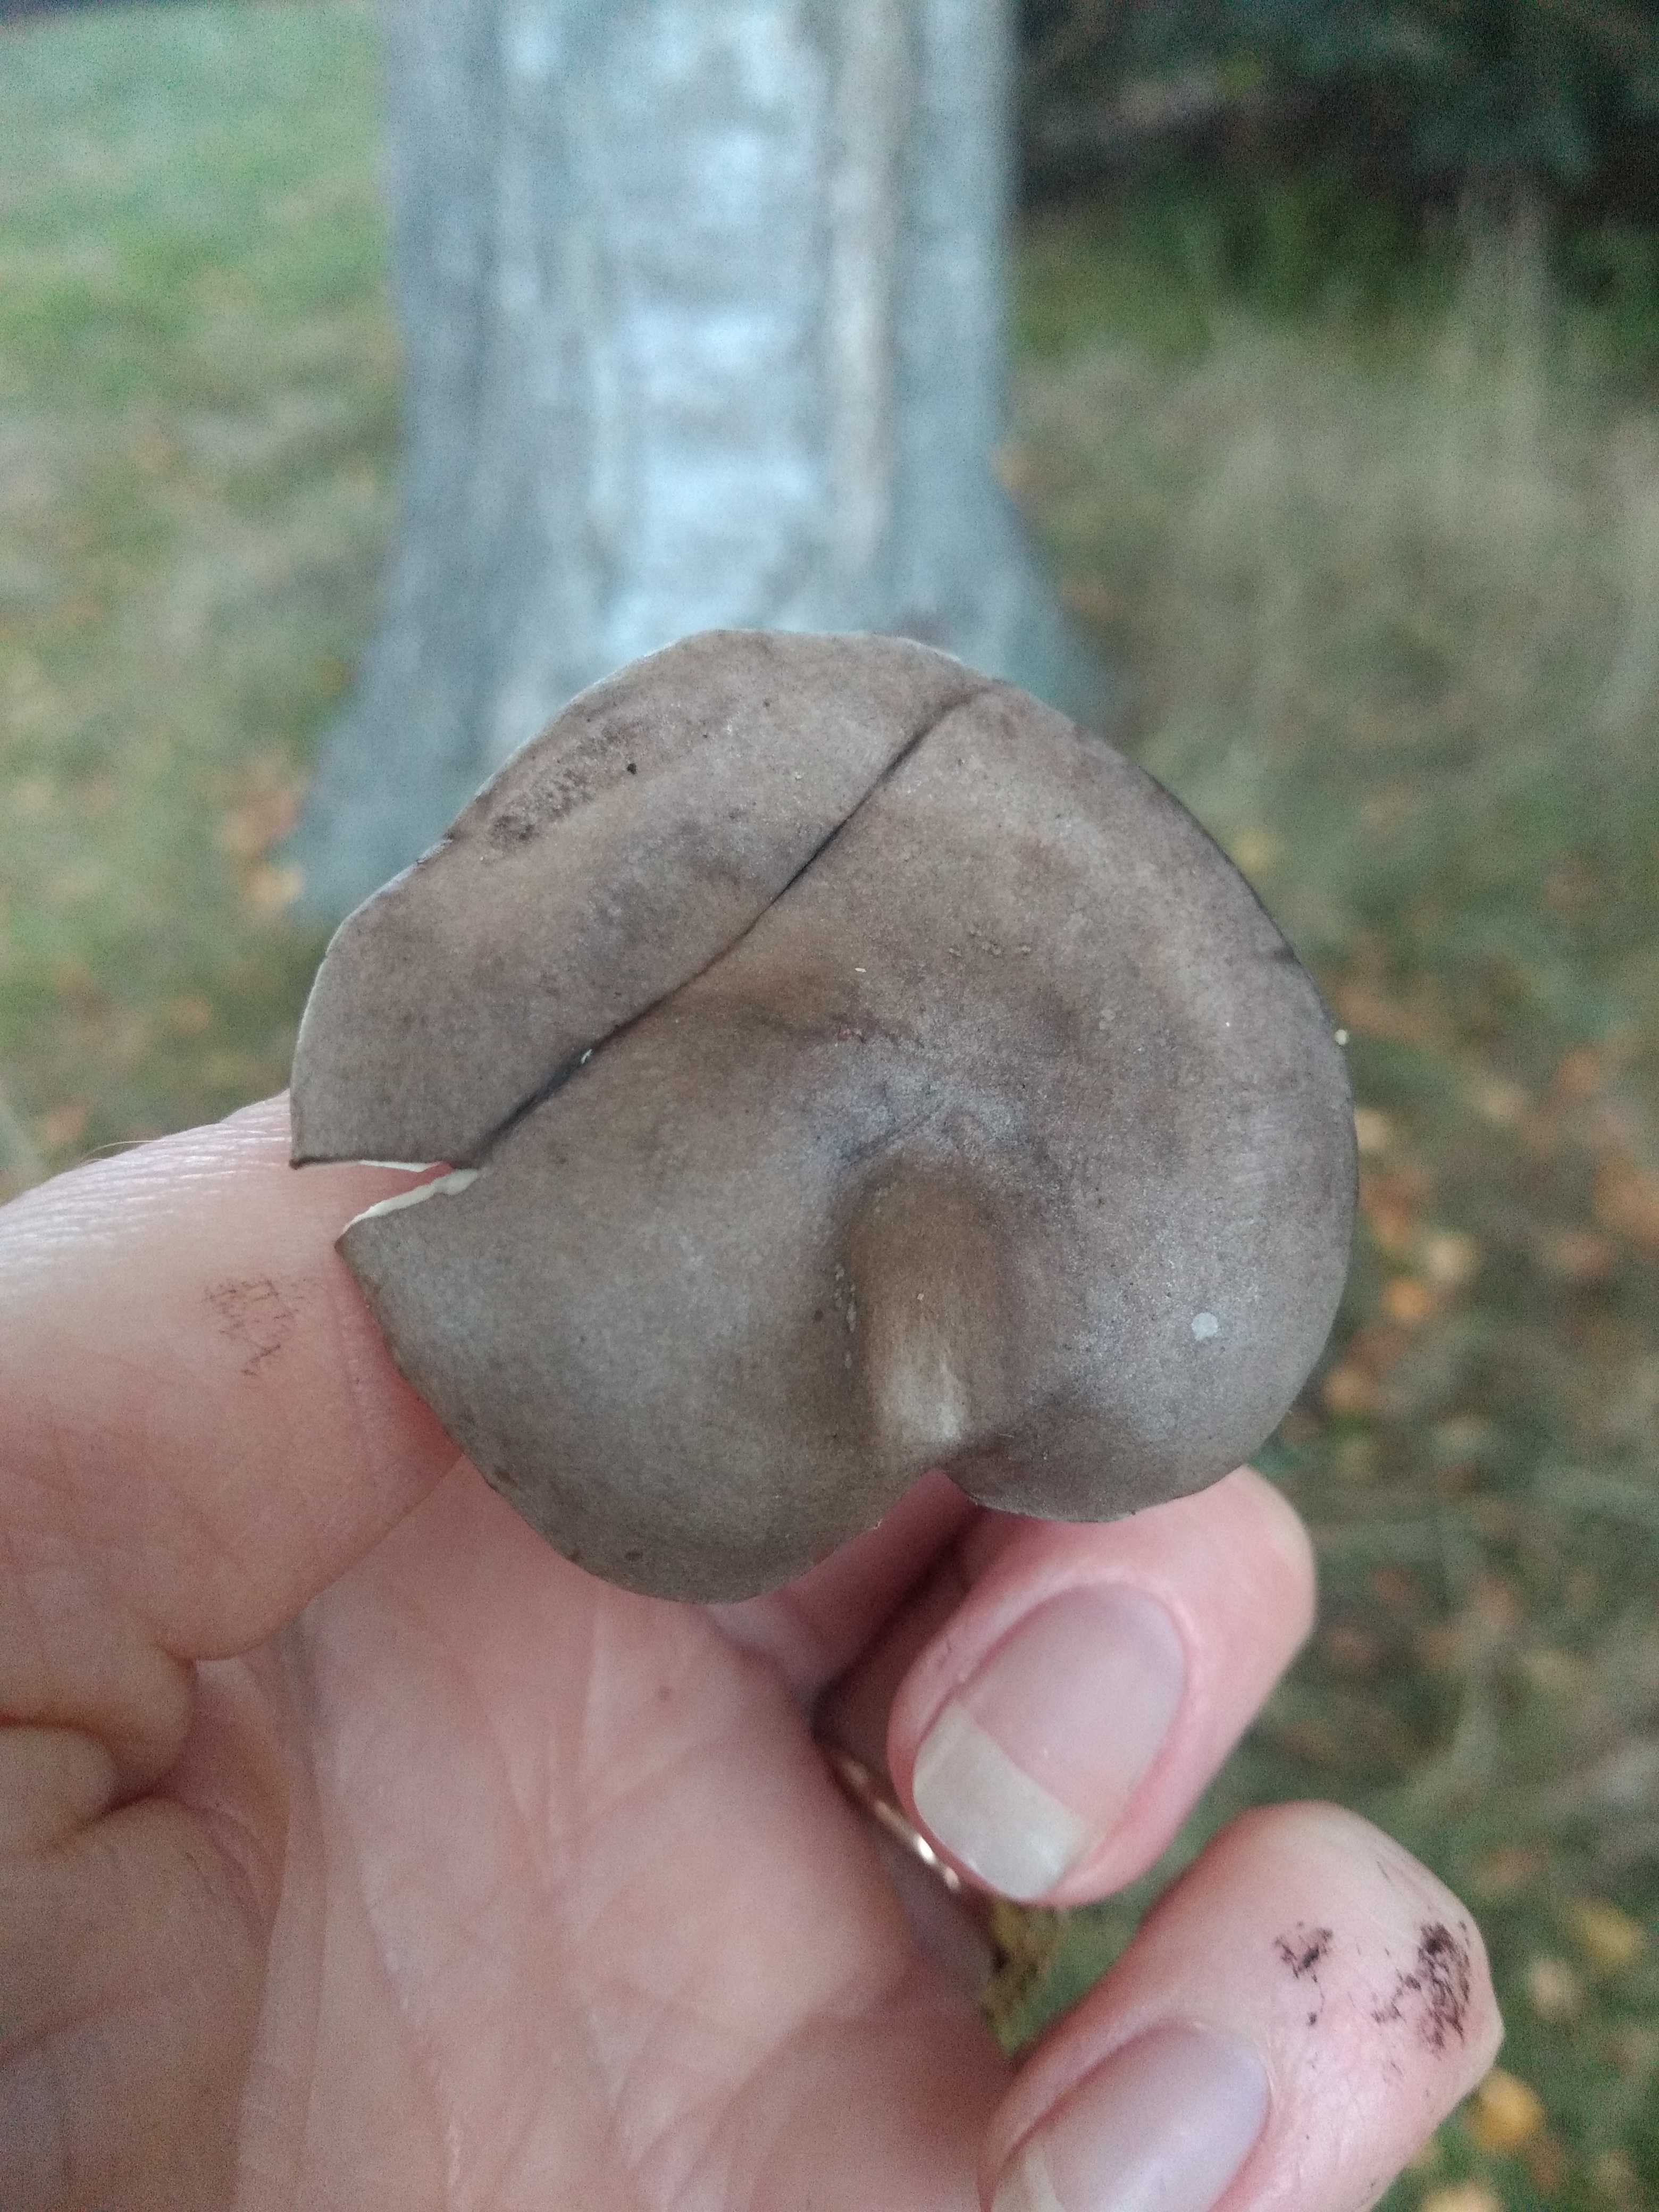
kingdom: Fungi
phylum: Basidiomycota
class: Agaricomycetes
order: Agaricales
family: Tricholomataceae
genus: Melanoleuca
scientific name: Melanoleuca
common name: munkehat
